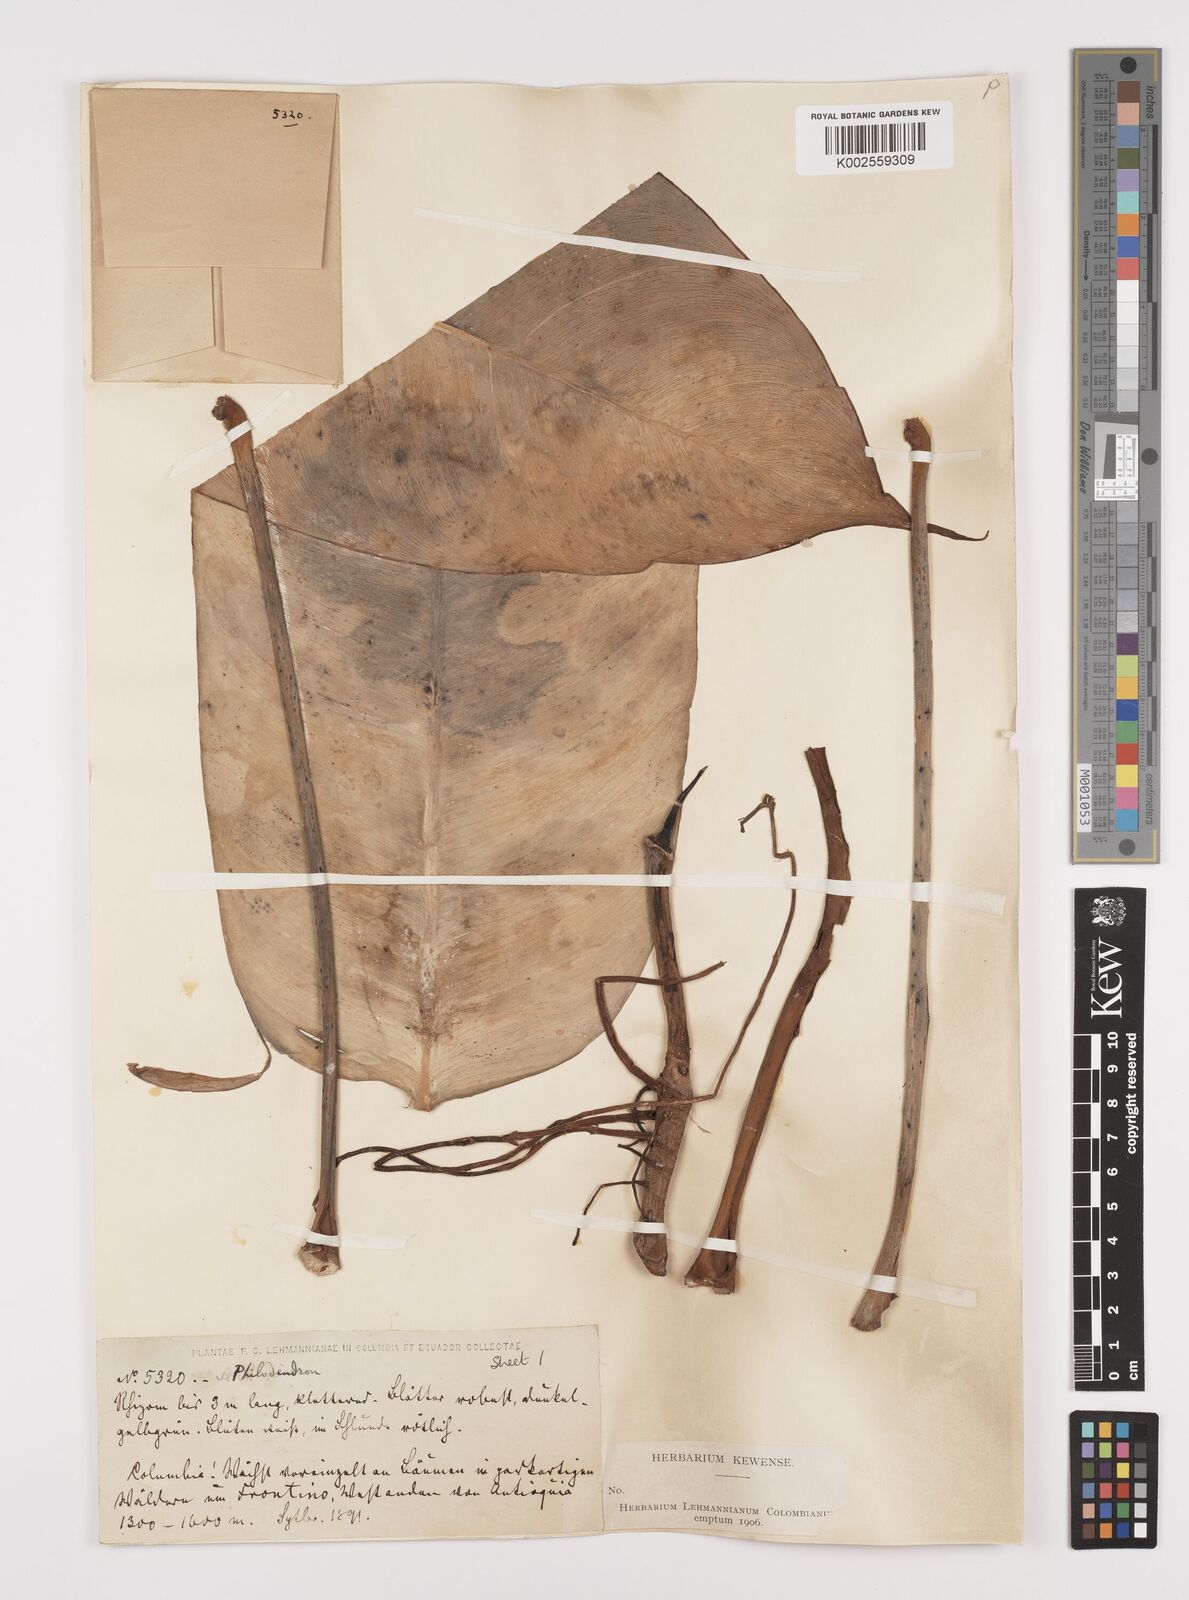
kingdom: Plantae
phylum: Tracheophyta
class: Liliopsida
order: Alismatales
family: Araceae
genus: Philodendron
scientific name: Philodendron ruizii
